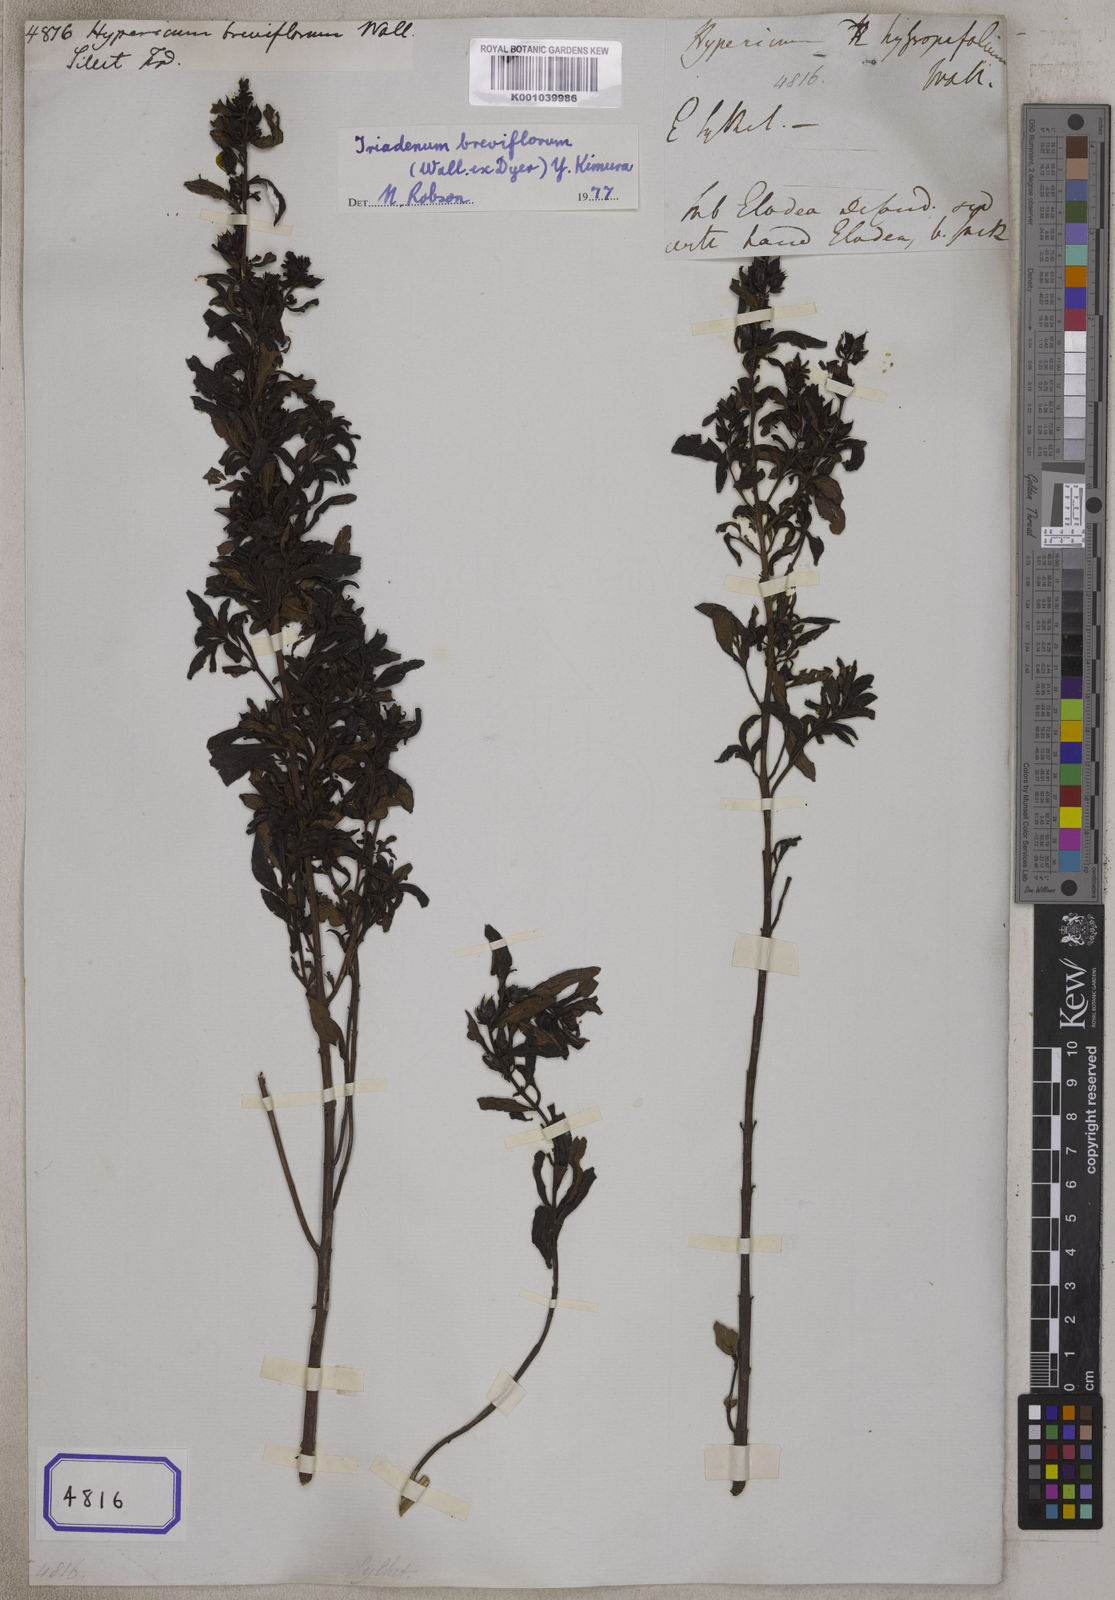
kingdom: Plantae
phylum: Tracheophyta
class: Magnoliopsida
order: Malpighiales
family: Hypericaceae
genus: Hypericum
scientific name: Hypericum
